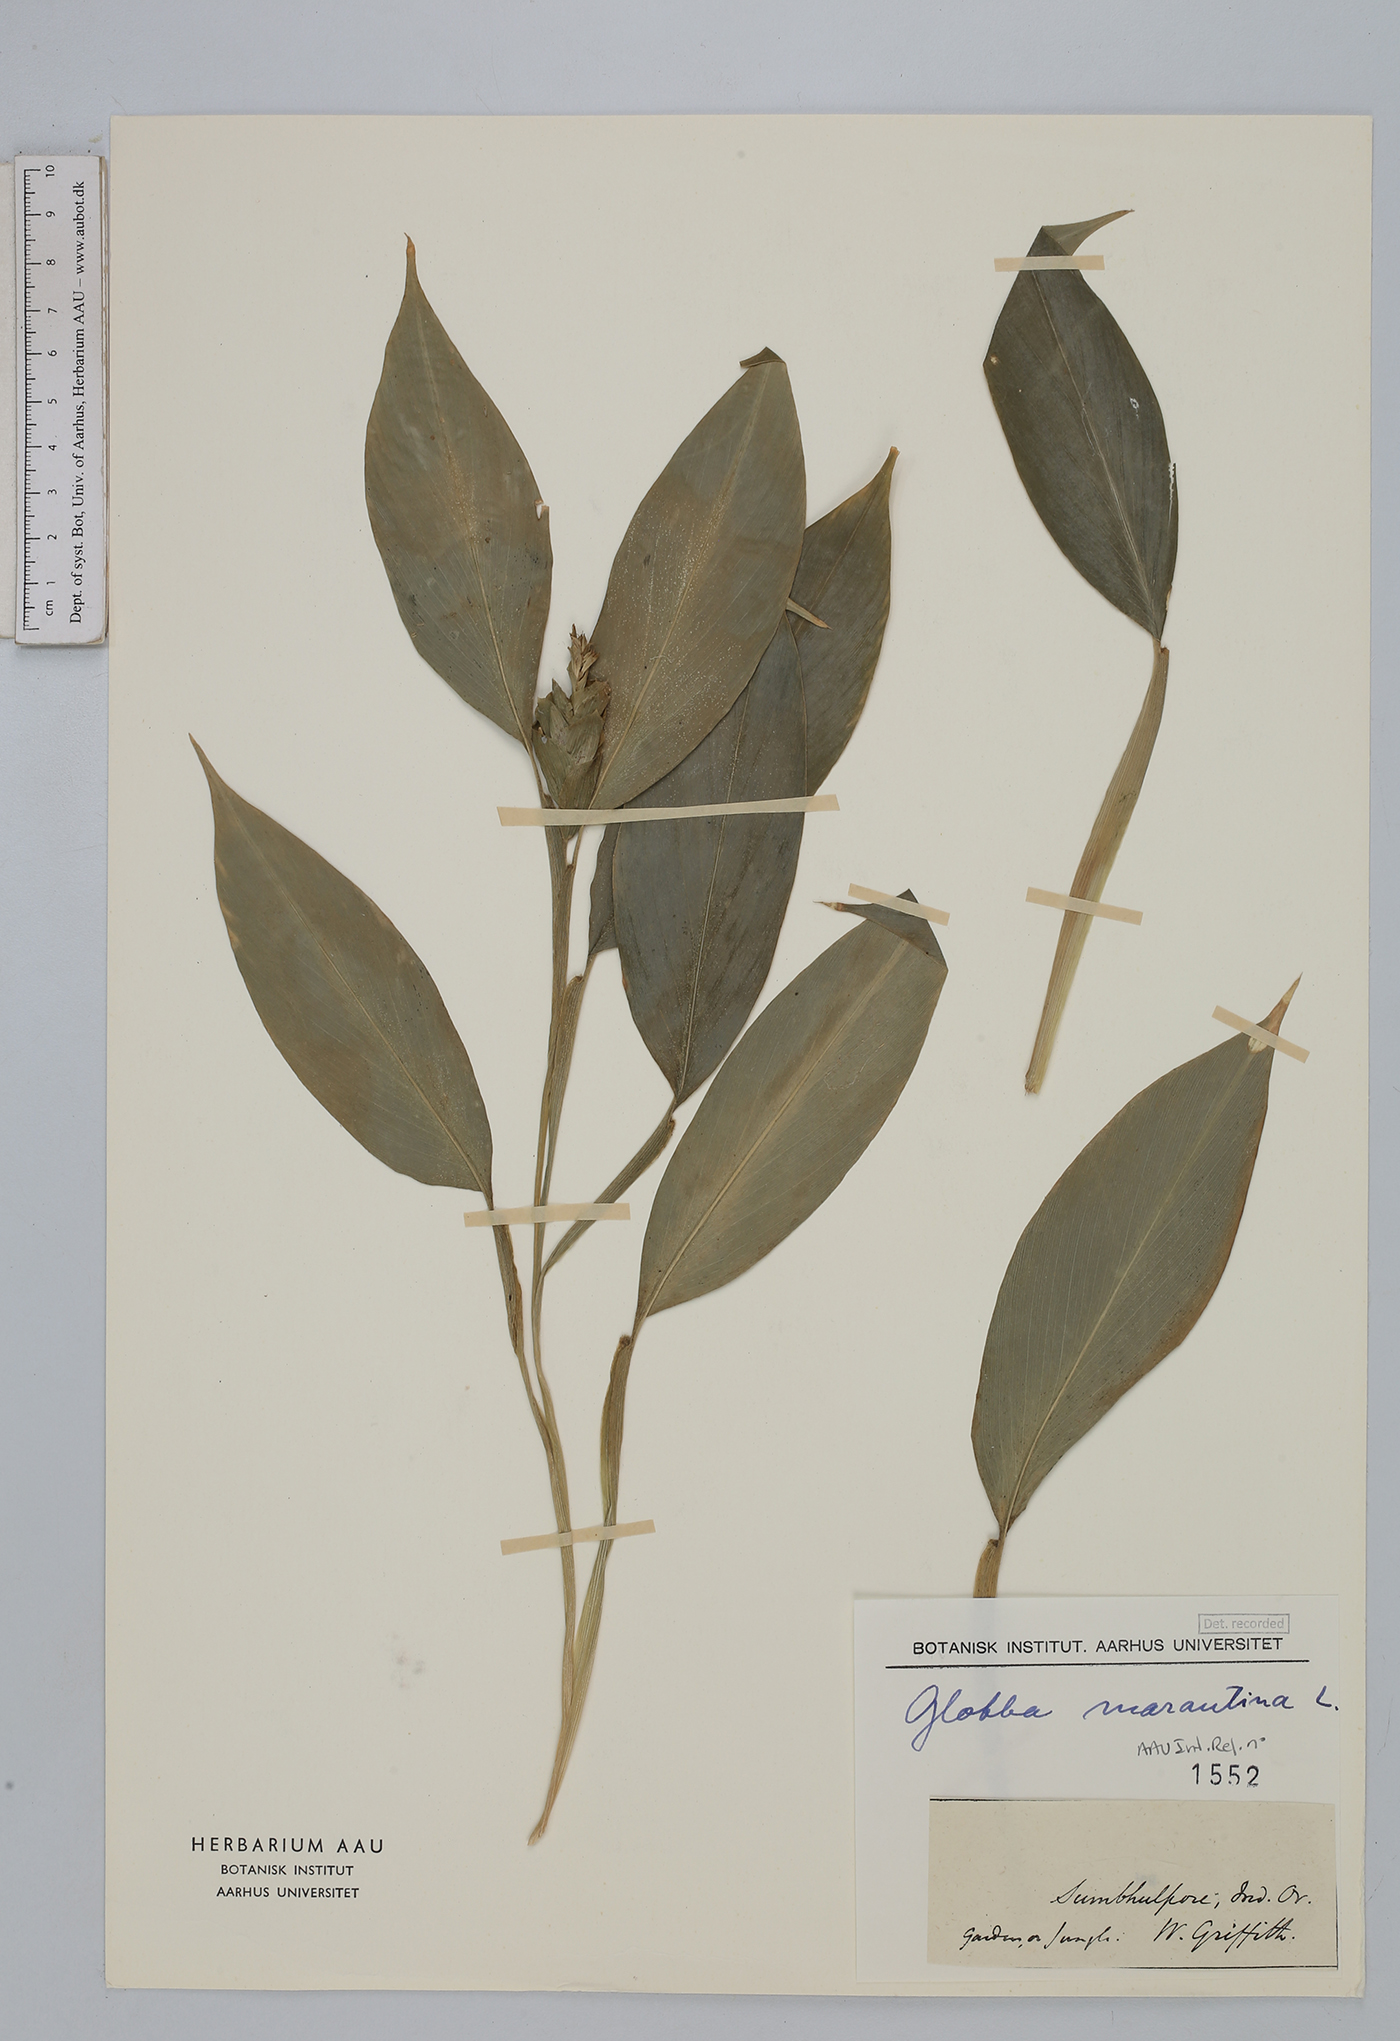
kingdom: Plantae
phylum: Tracheophyta
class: Liliopsida
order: Zingiberales
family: Zingiberaceae
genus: Globba
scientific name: Globba marantina
